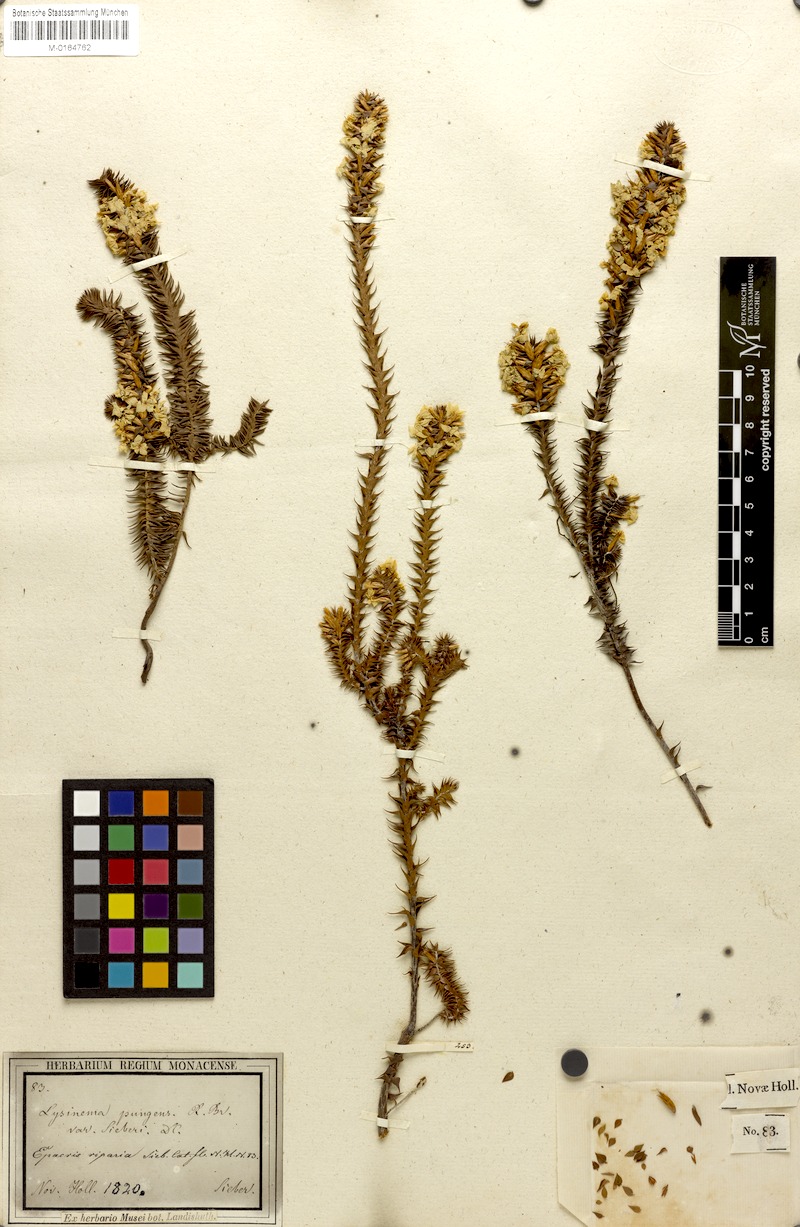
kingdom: Plantae
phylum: Tracheophyta
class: Magnoliopsida
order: Ericales
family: Ericaceae
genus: Epacris
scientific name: Epacris pulchella
